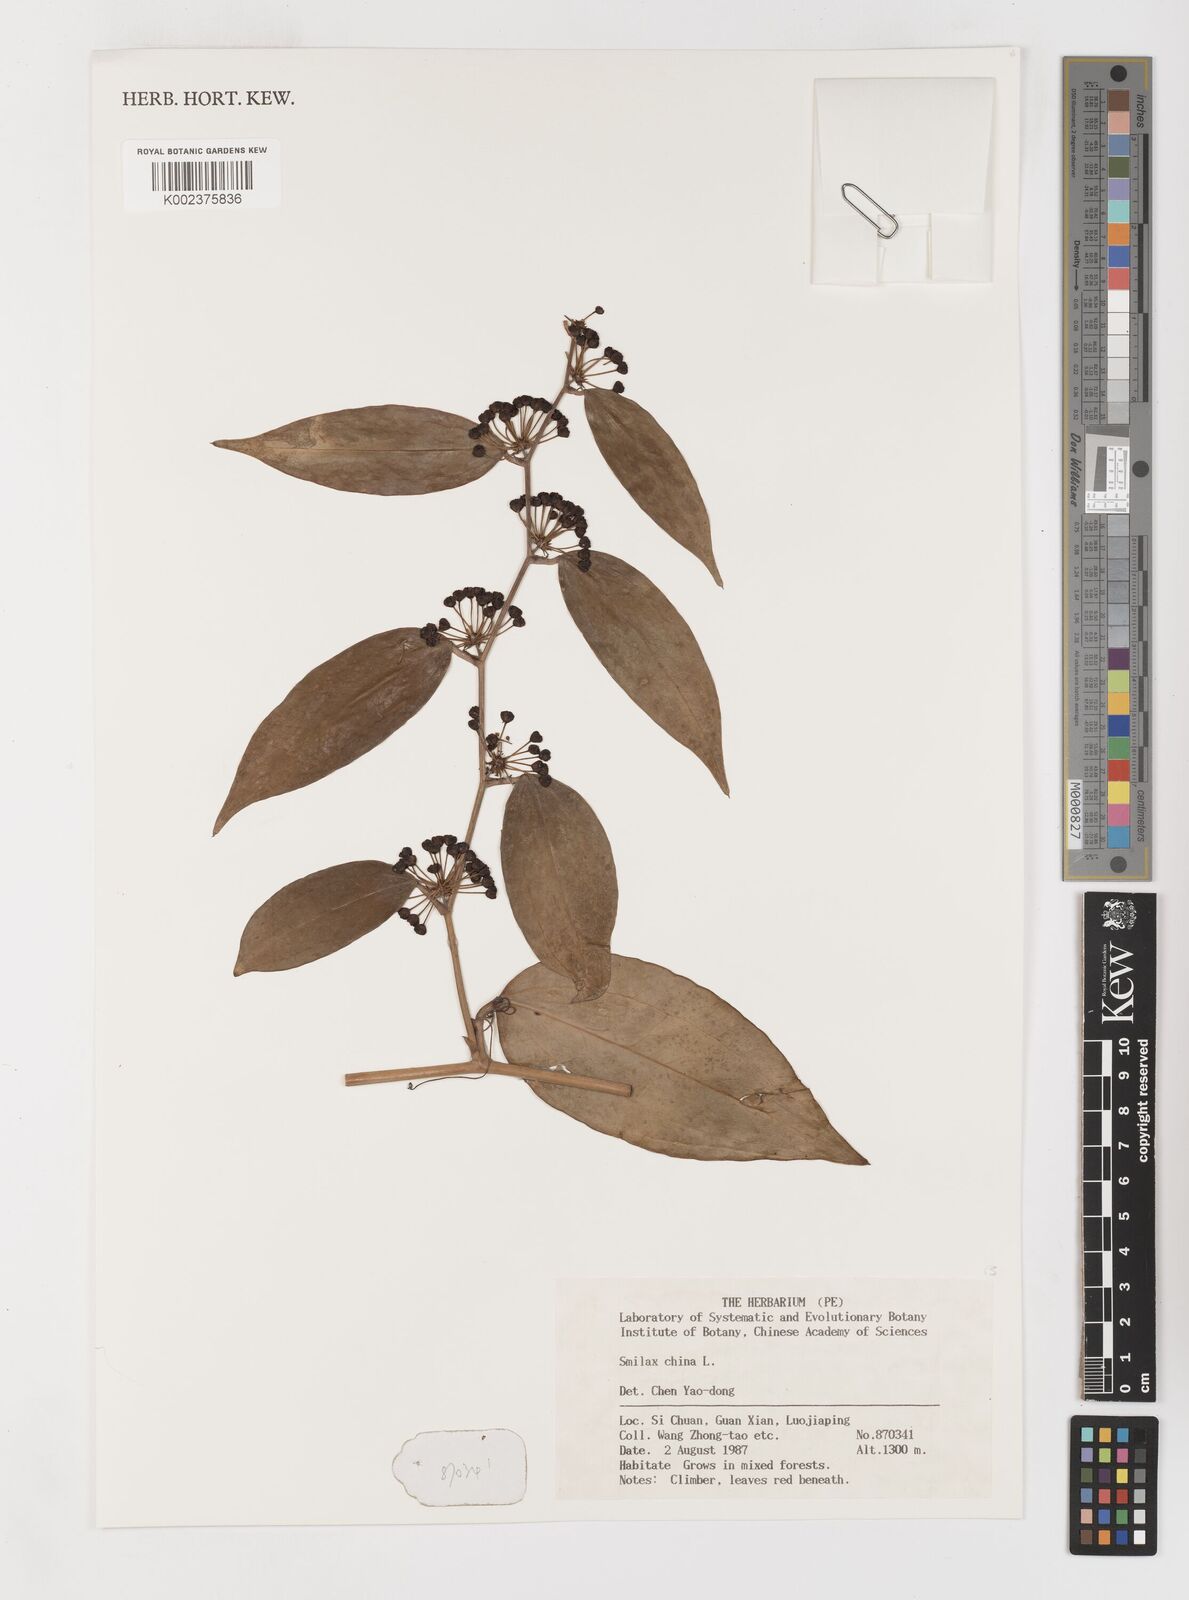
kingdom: Plantae
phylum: Tracheophyta
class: Liliopsida
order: Liliales
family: Smilacaceae
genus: Smilax
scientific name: Smilax china
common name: Chinaroot
